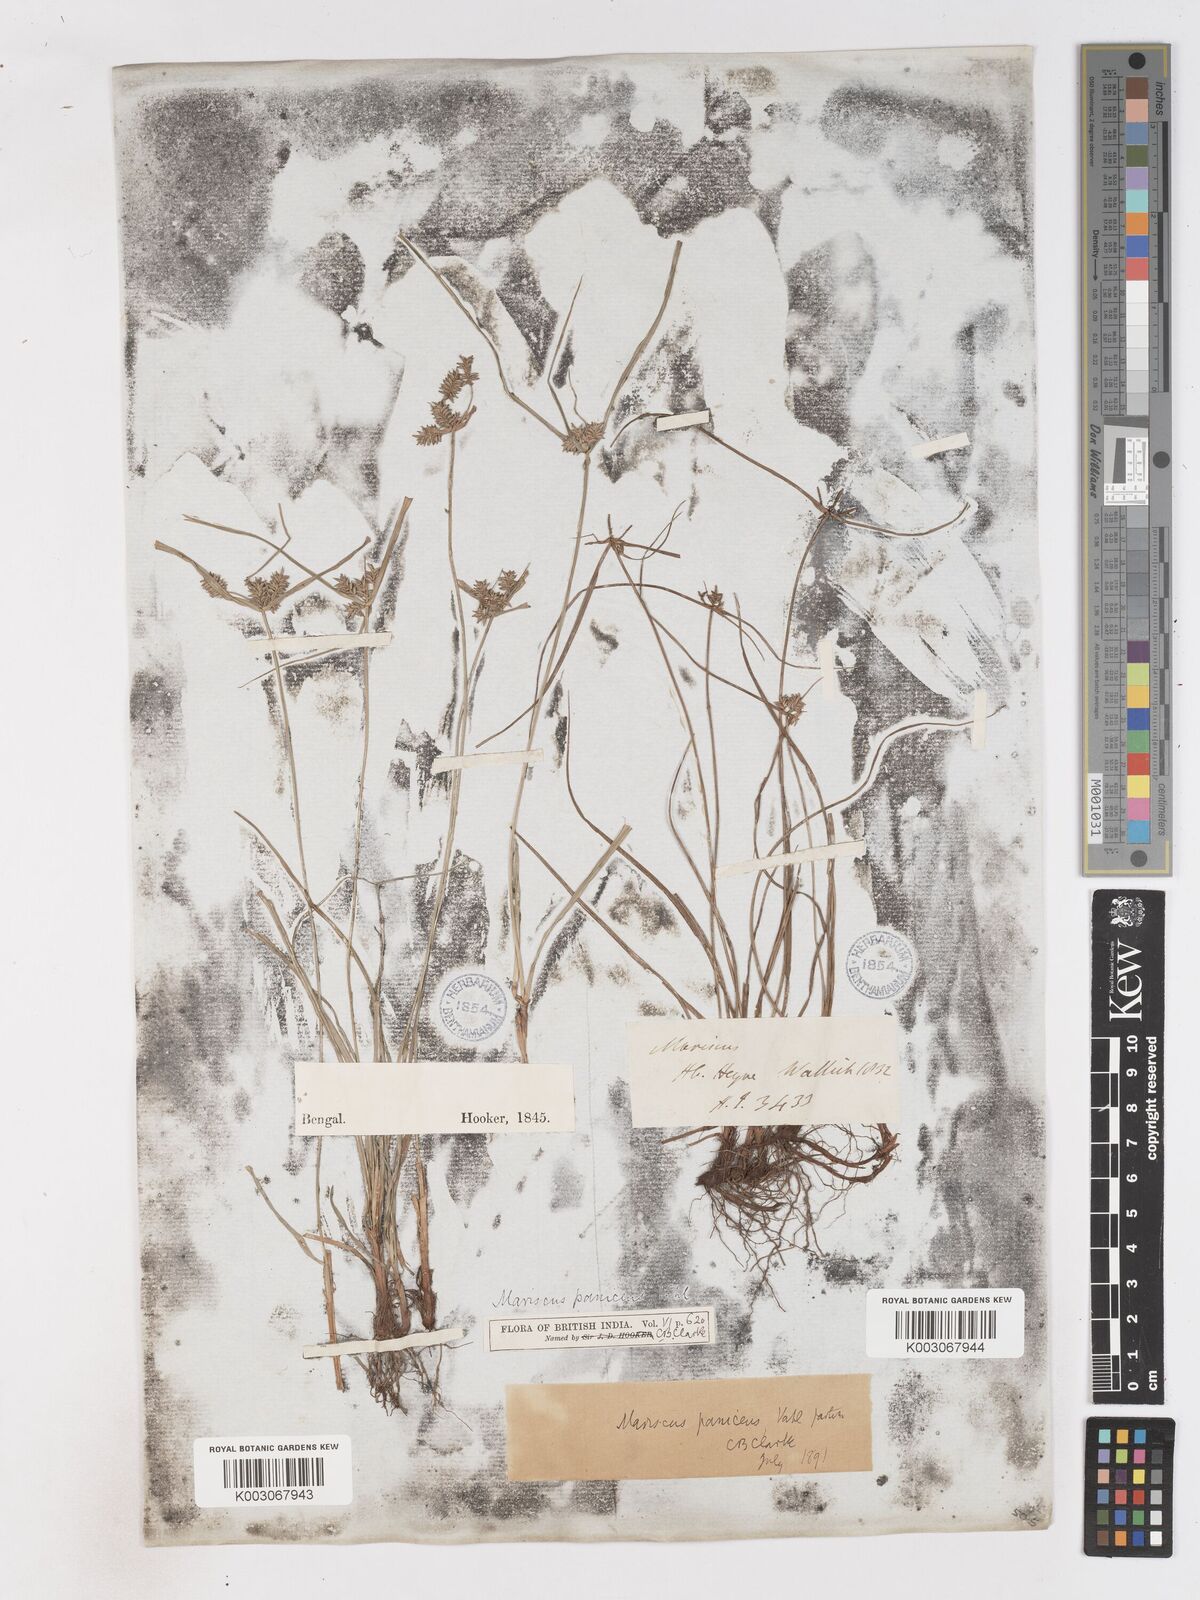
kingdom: Plantae
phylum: Tracheophyta
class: Liliopsida
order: Poales
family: Cyperaceae
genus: Cyperus
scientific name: Cyperus paniceus
